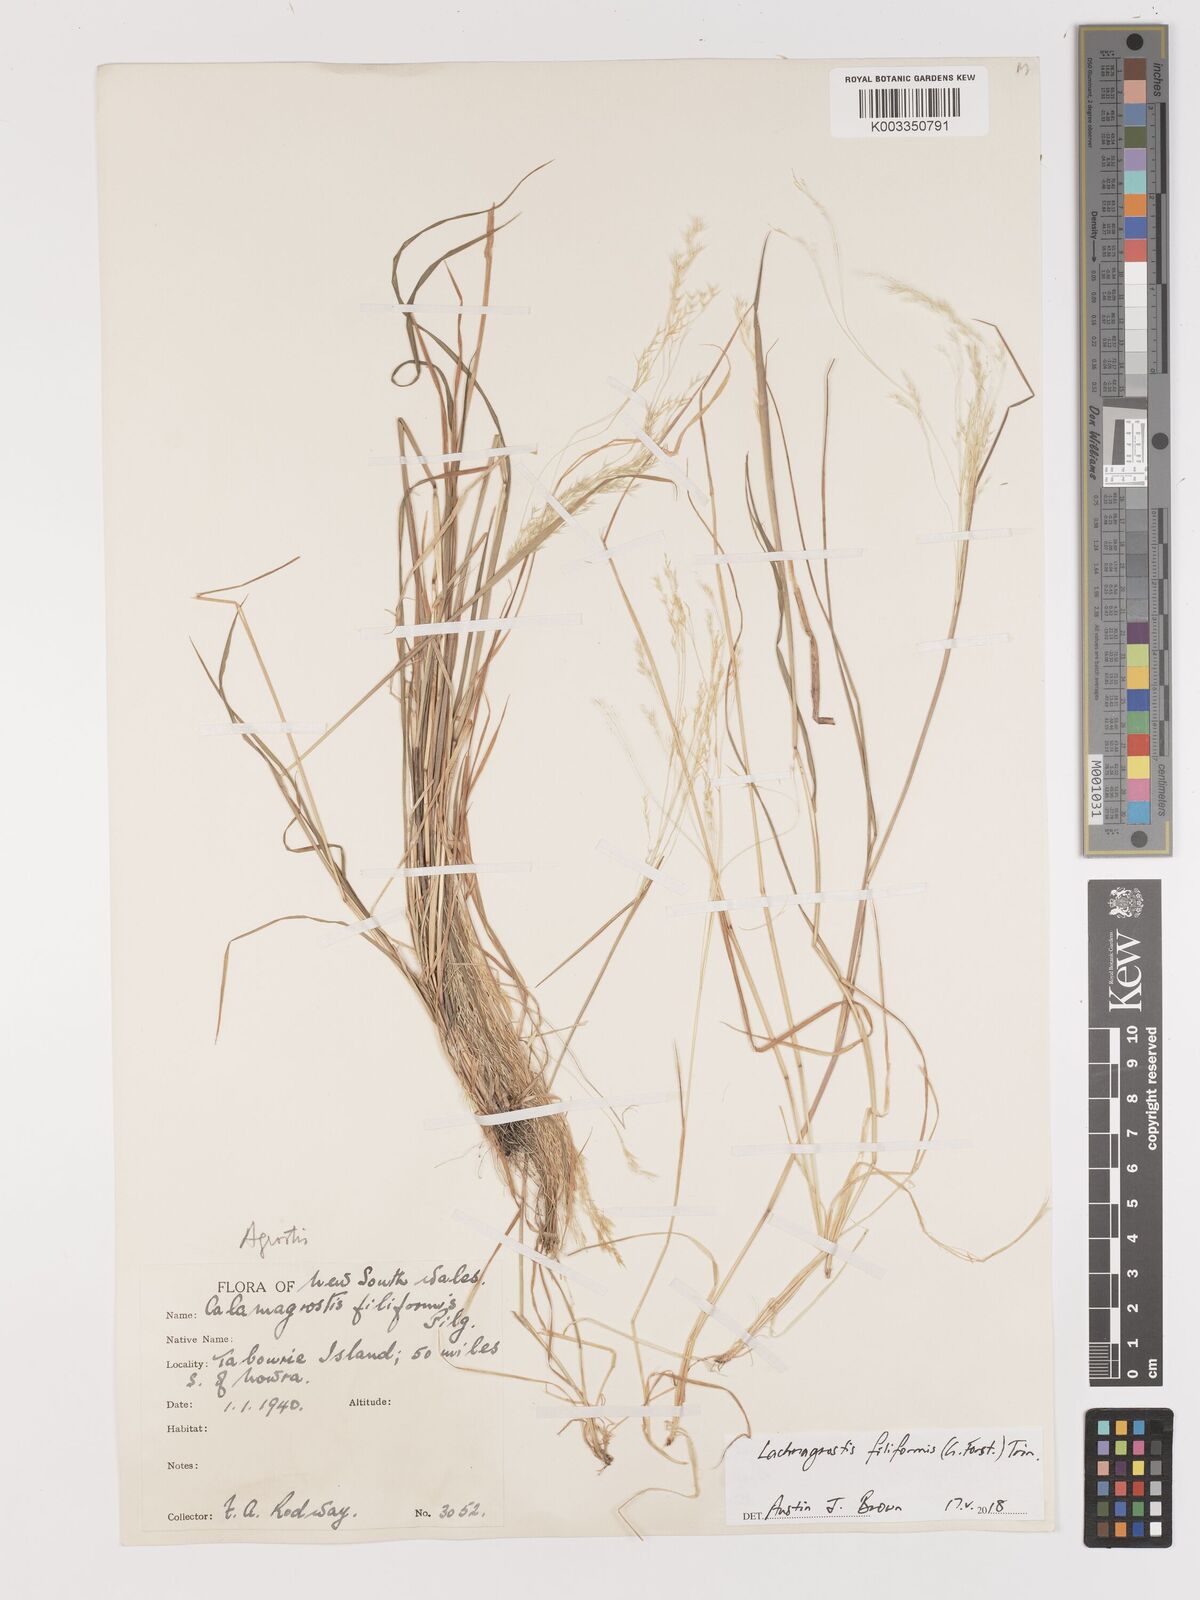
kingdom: Plantae
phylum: Tracheophyta
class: Liliopsida
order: Poales
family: Poaceae
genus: Lachnagrostis
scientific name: Lachnagrostis filiformis
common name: Bentgrass
